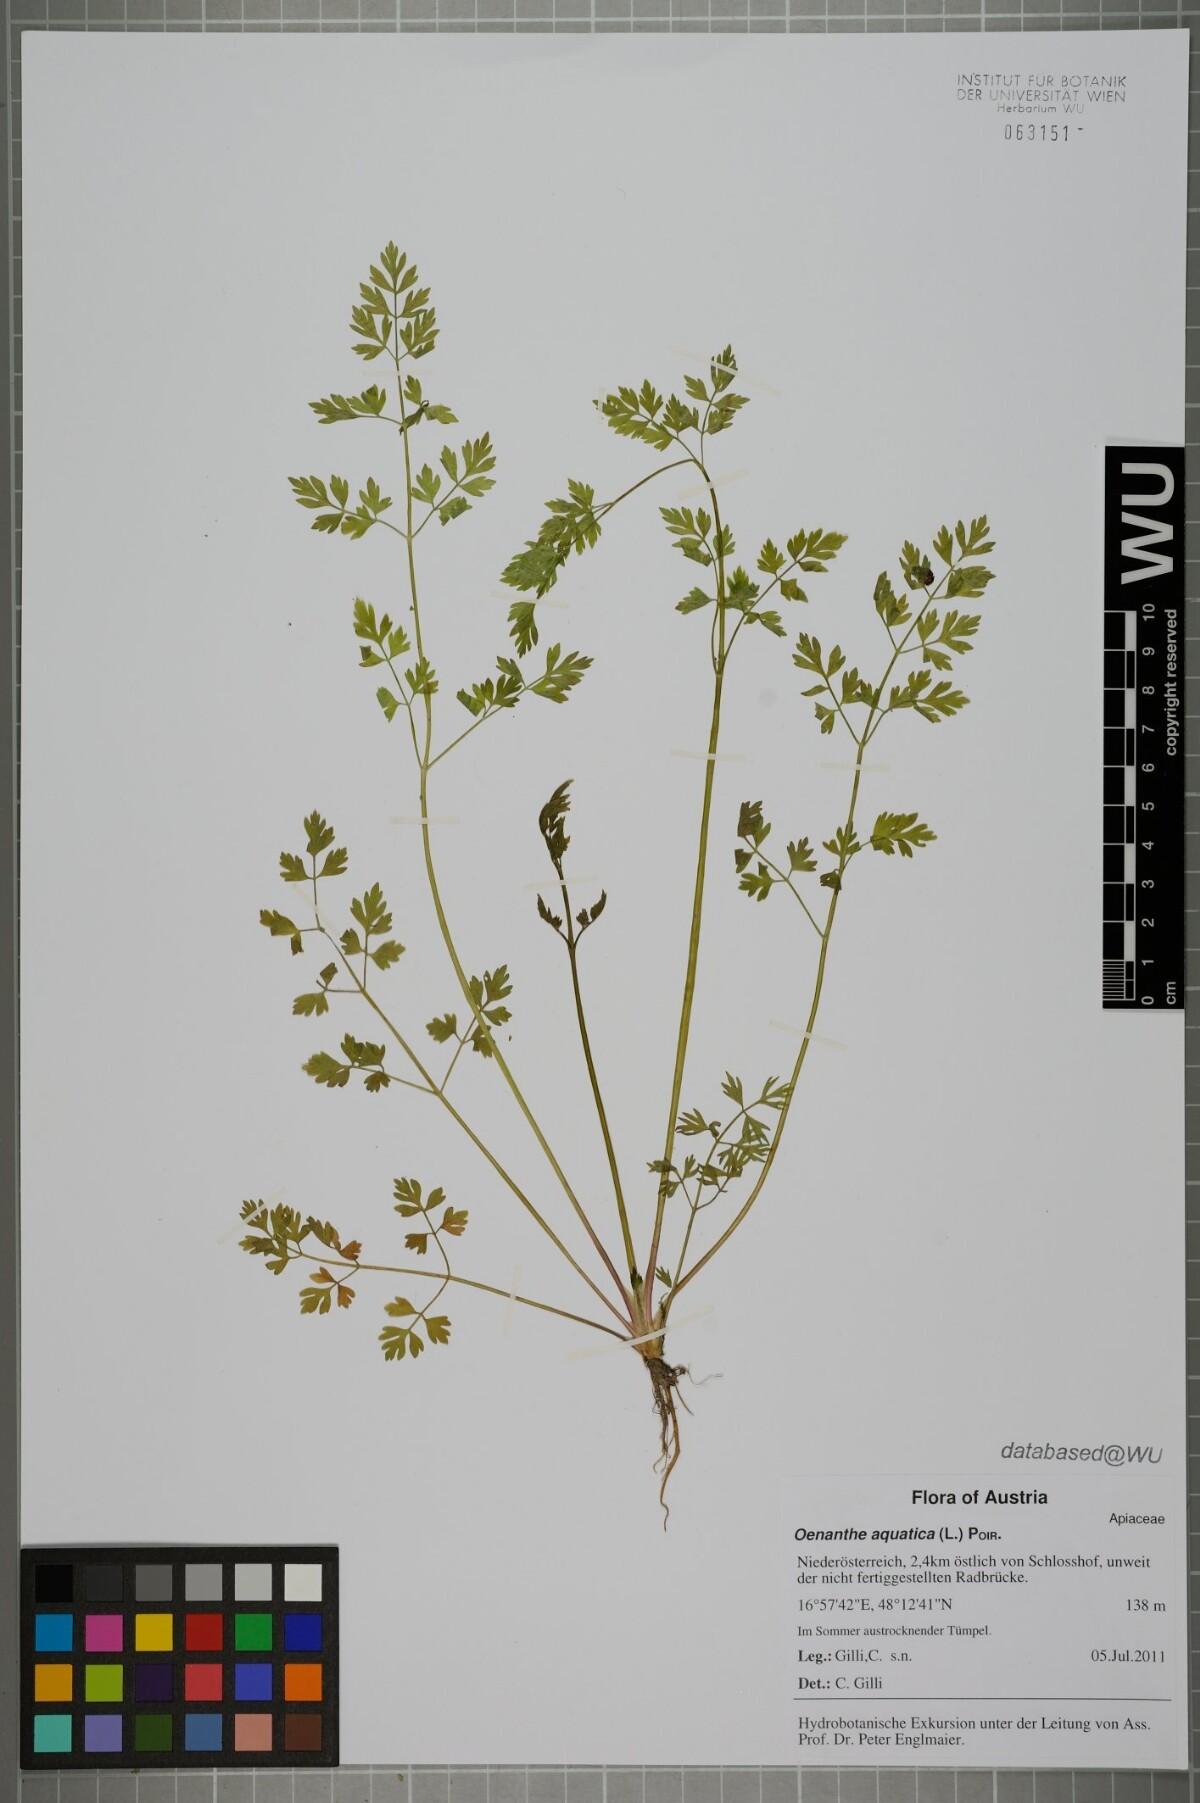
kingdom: Plantae
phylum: Tracheophyta
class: Magnoliopsida
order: Apiales
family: Apiaceae
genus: Oenanthe
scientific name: Oenanthe aquatica
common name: Fine-leaved water-dropwort
